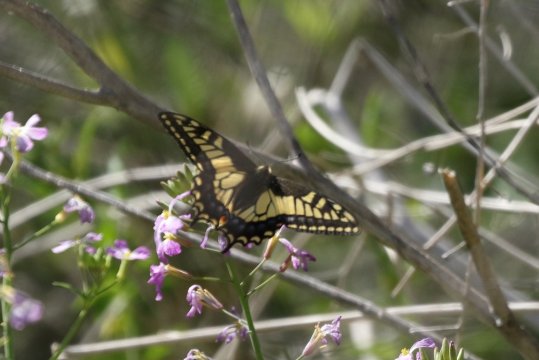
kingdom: Animalia
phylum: Arthropoda
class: Insecta
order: Lepidoptera
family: Papilionidae
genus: Papilio
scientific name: Papilio zelicaon
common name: Anise Swallowtail
